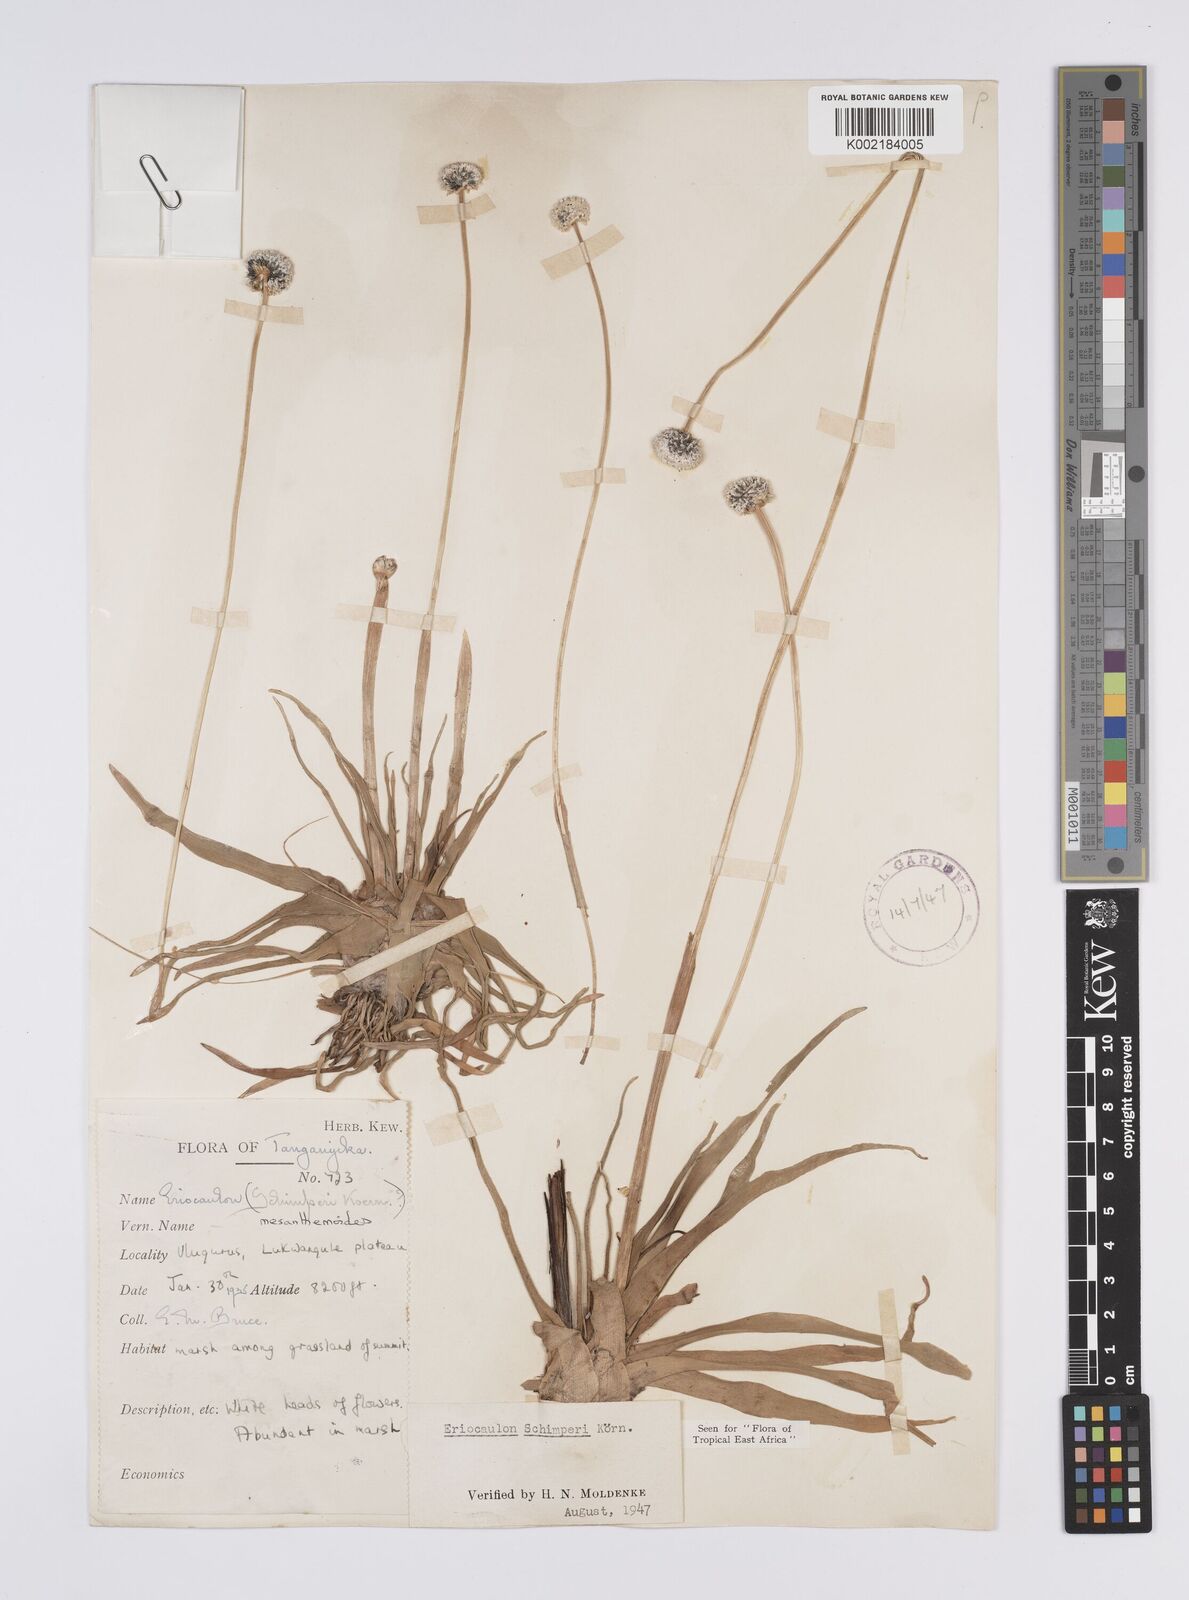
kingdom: Plantae
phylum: Tracheophyta
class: Liliopsida
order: Poales
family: Eriocaulaceae
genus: Eriocaulon
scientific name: Eriocaulon mesanthemoides
